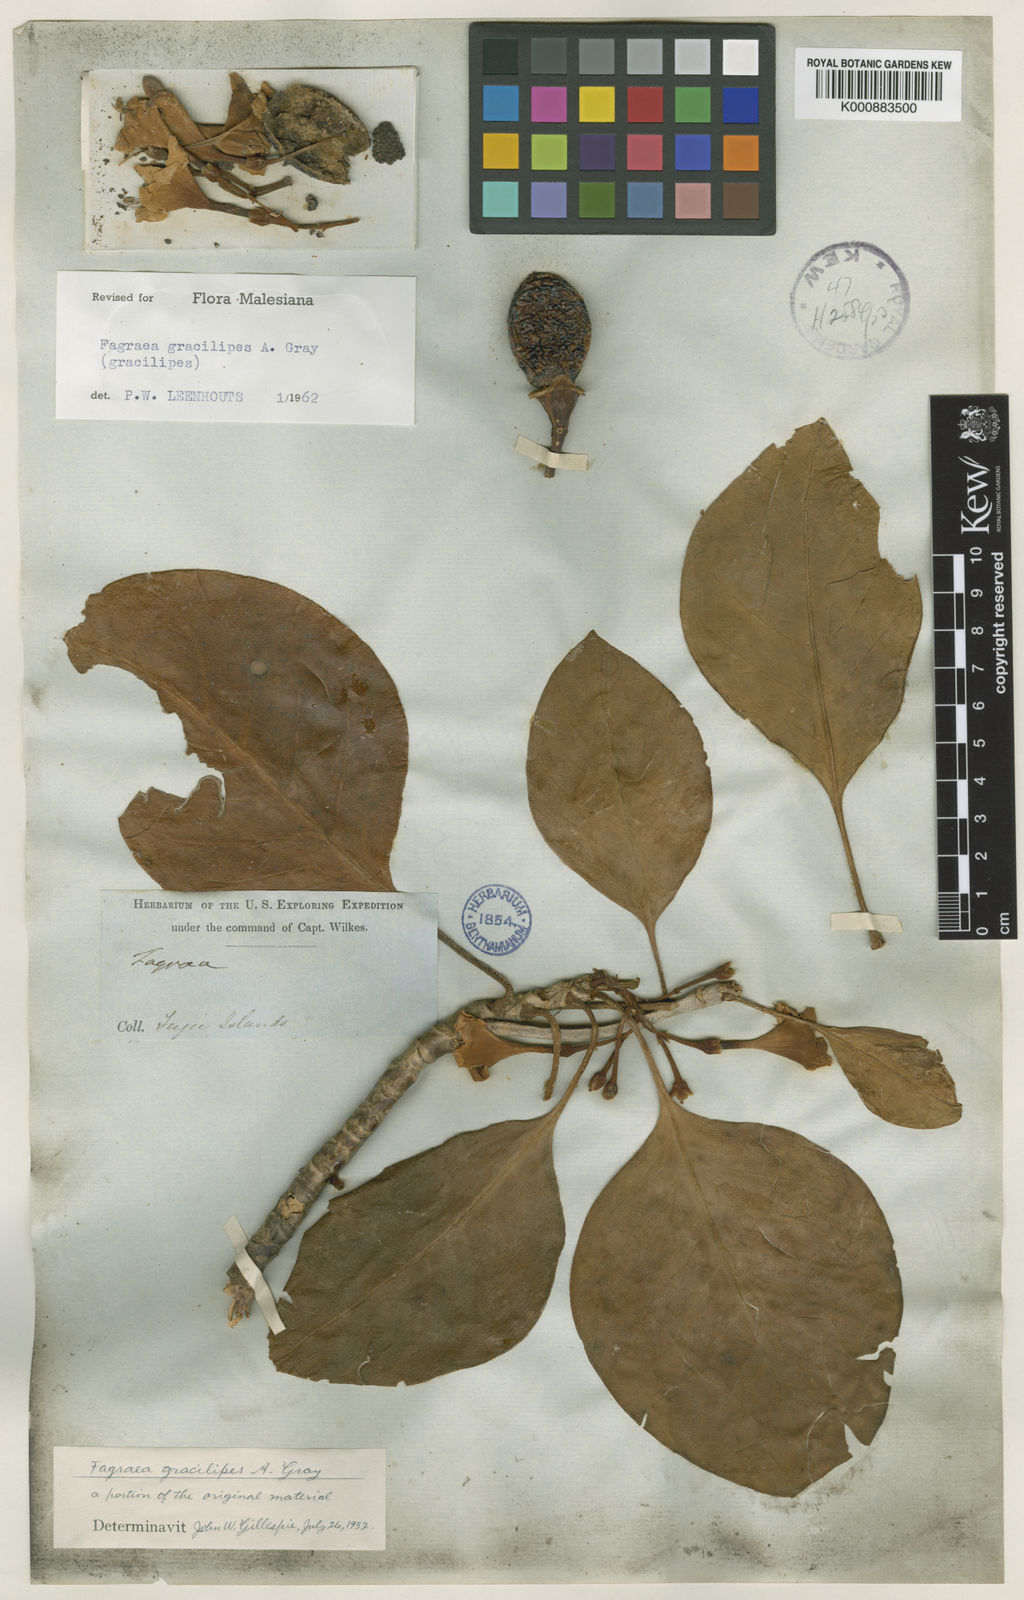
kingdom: Plantae
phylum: Tracheophyta
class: Magnoliopsida
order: Gentianales
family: Gentianaceae
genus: Fagraea
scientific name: Fagraea gracilipes
